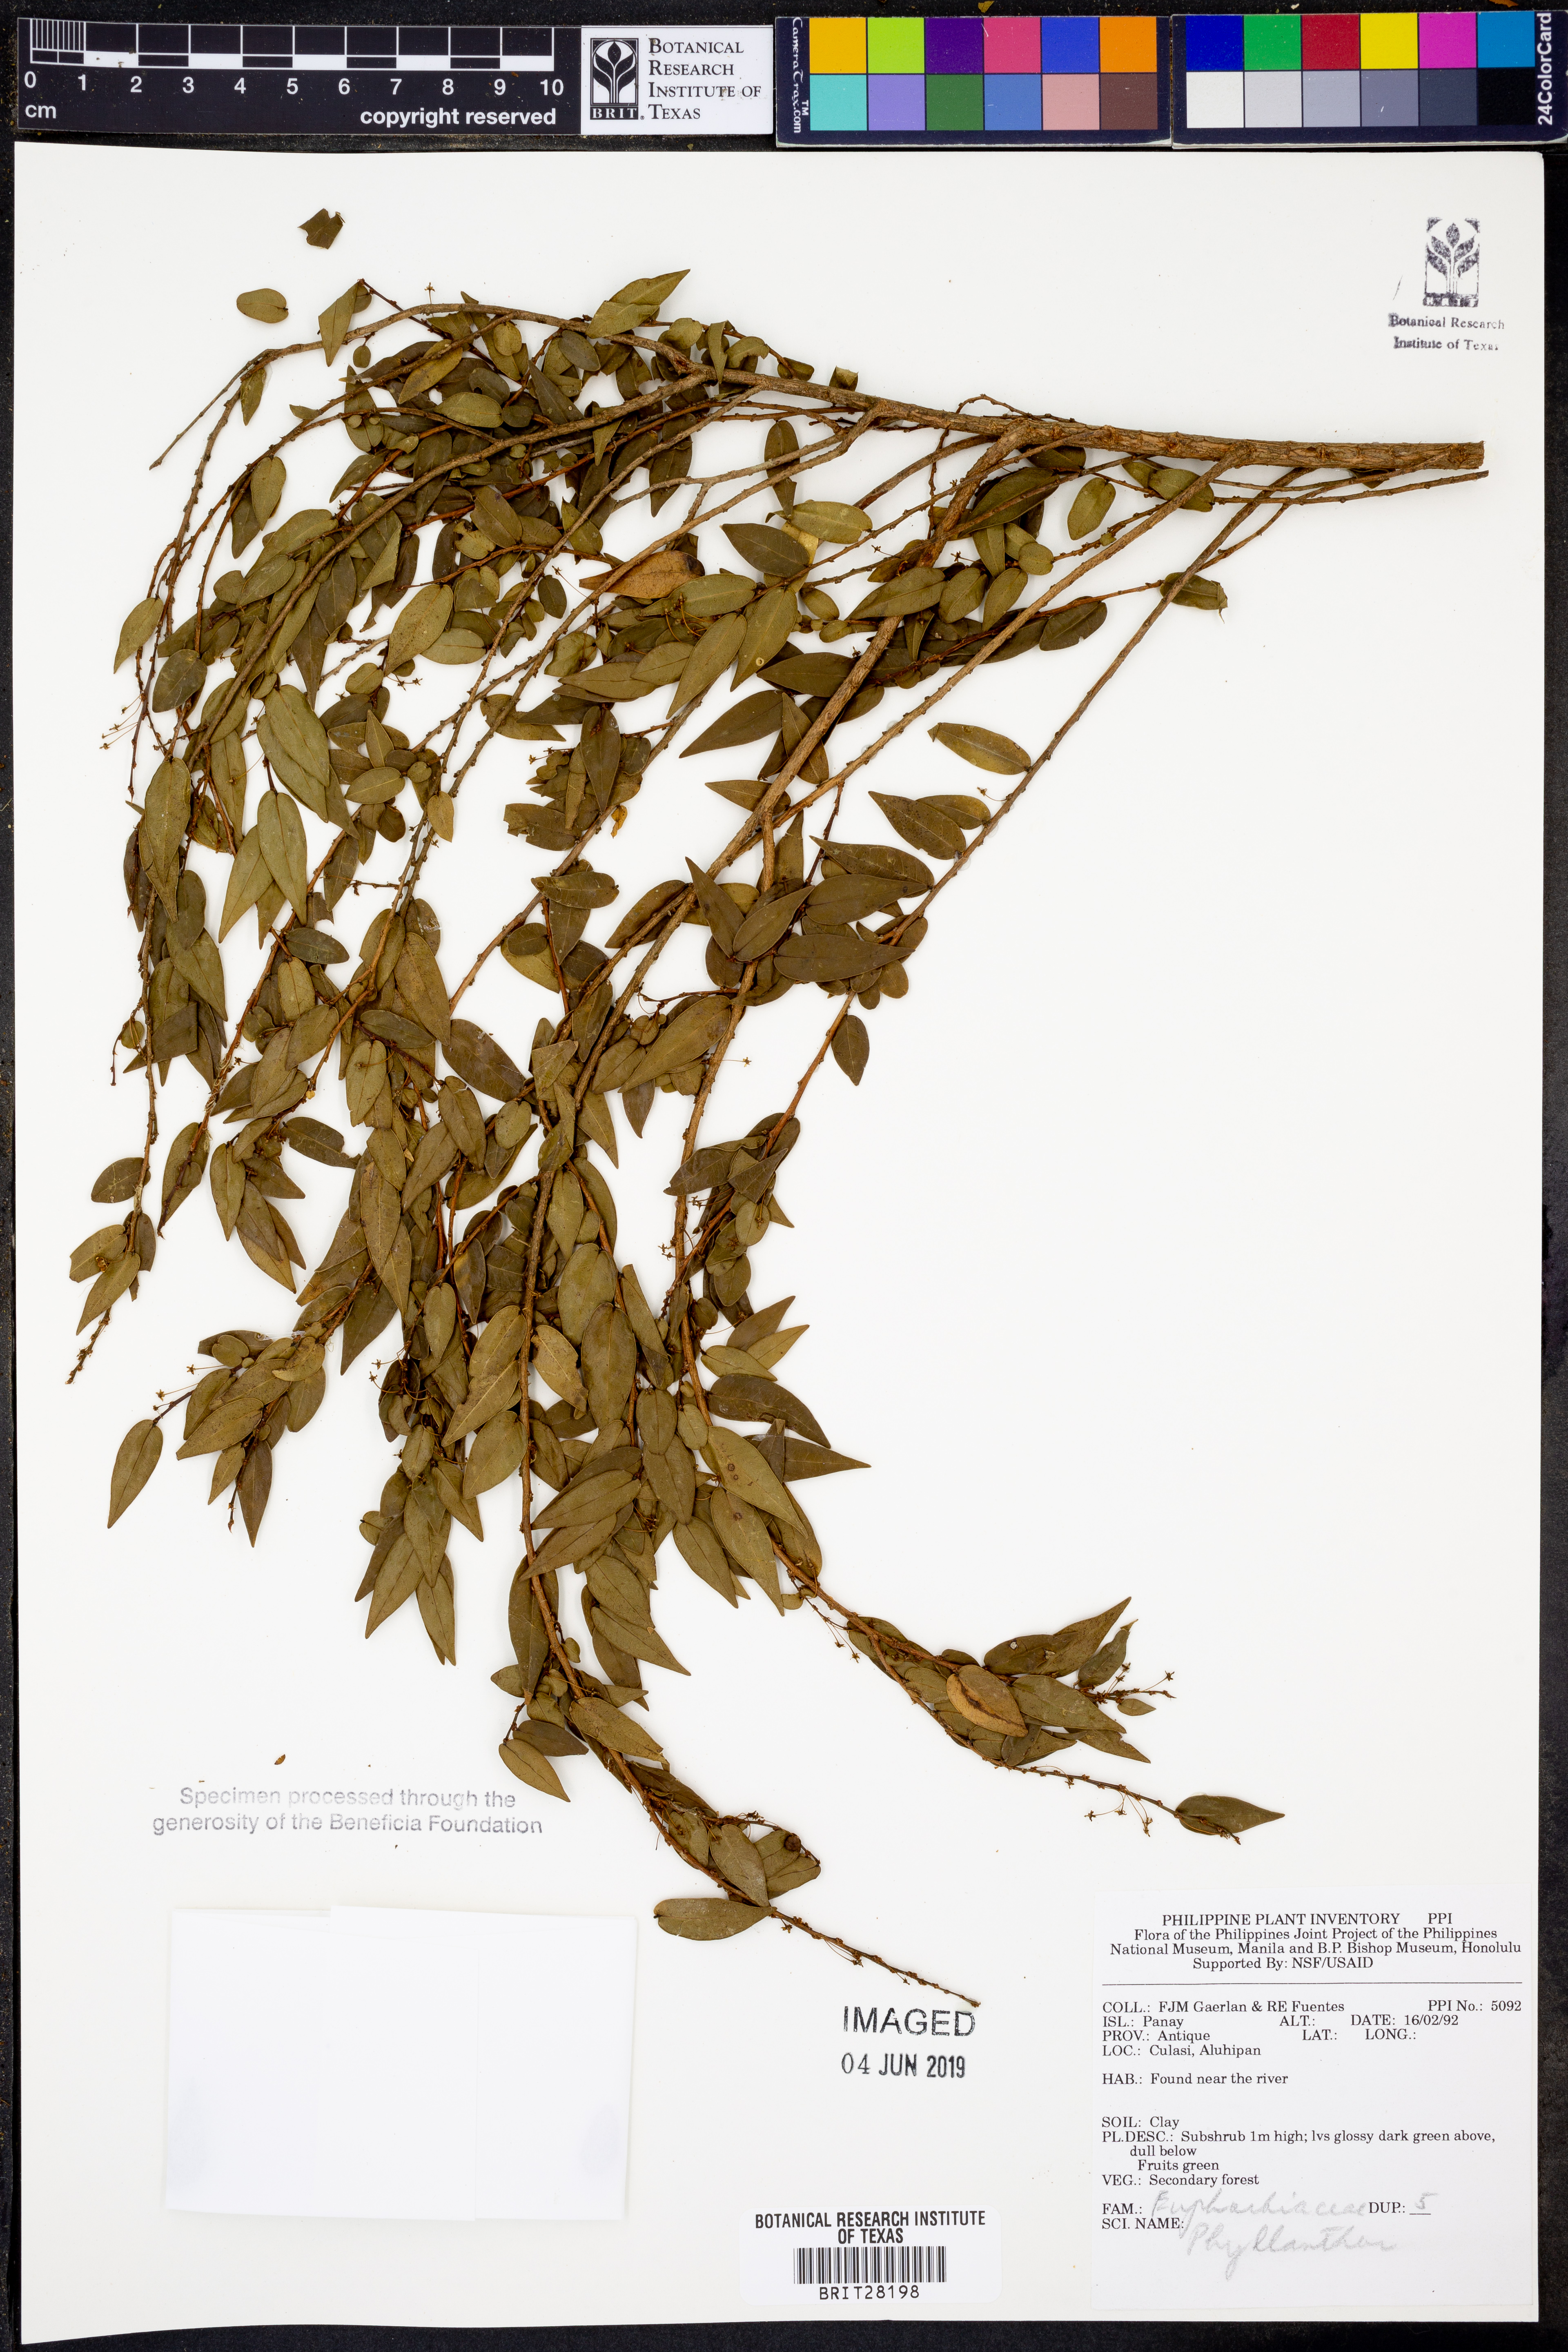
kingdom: Plantae
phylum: Tracheophyta
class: Magnoliopsida
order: Malpighiales
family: Phyllanthaceae
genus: Phyllanthus
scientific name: Phyllanthus
